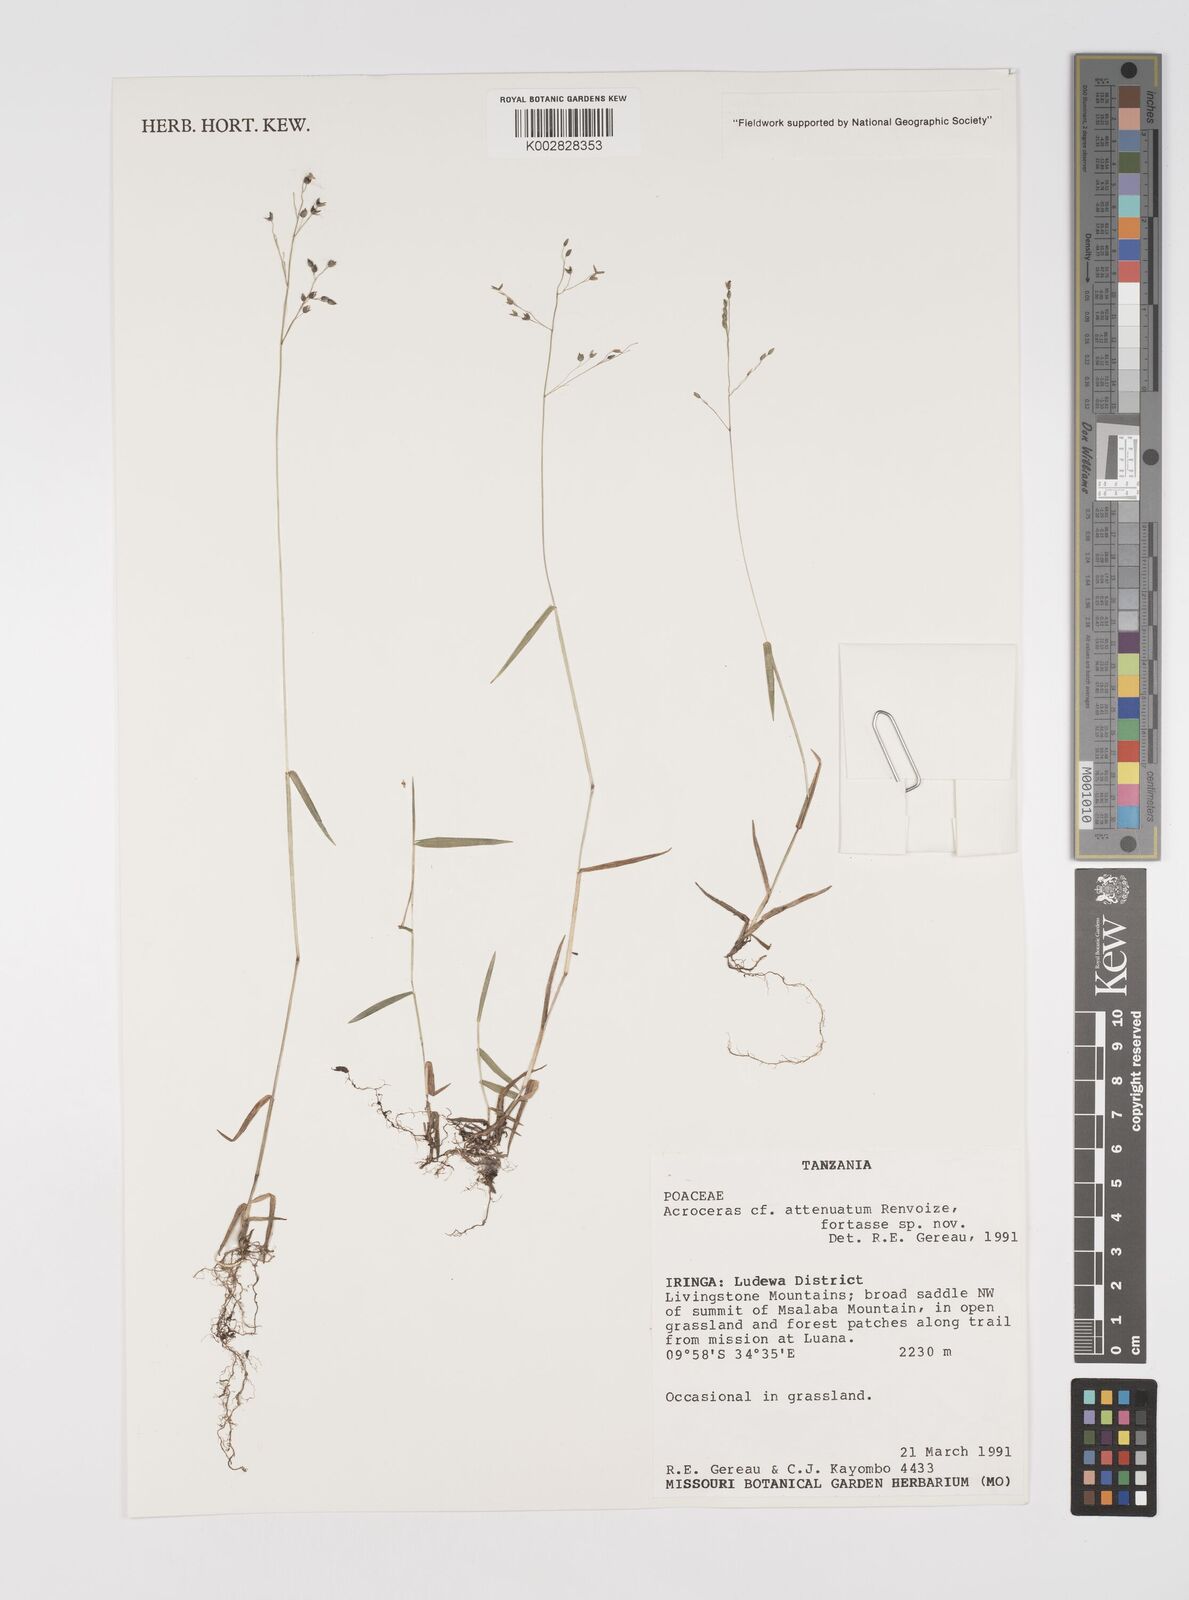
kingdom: Plantae
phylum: Tracheophyta
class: Liliopsida
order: Poales
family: Poaceae
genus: Acroceras
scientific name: Acroceras attenuatum
